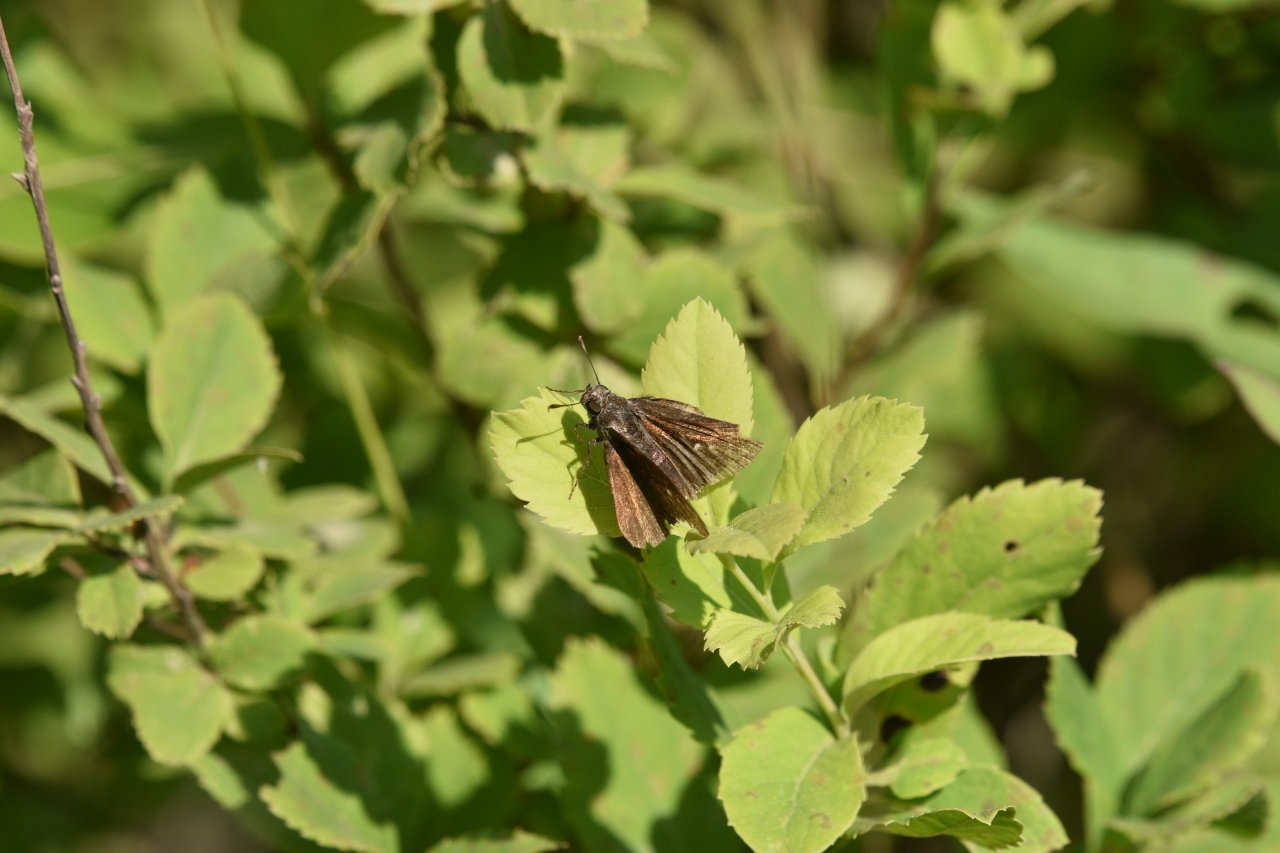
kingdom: Animalia
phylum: Arthropoda
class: Insecta
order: Lepidoptera
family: Hesperiidae
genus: Euphyes
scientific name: Euphyes vestris
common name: Dun Skipper
